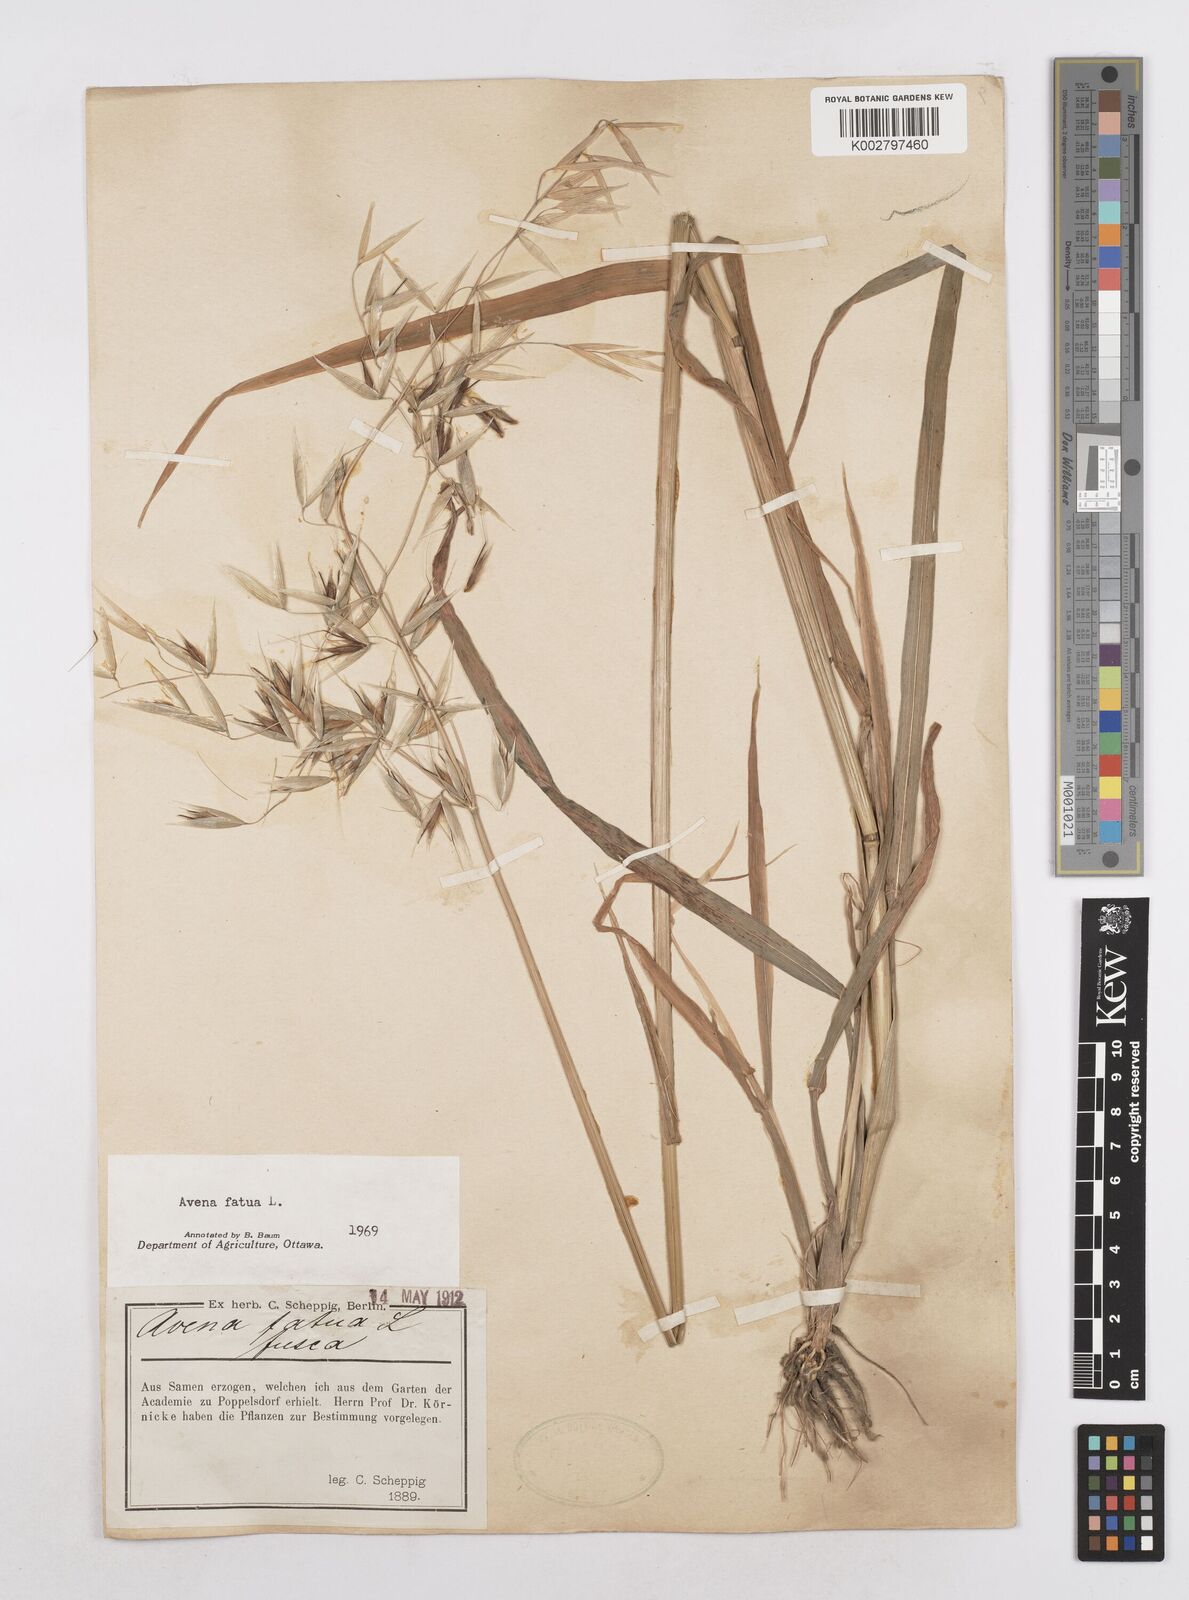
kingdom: Plantae
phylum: Tracheophyta
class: Liliopsida
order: Poales
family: Poaceae
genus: Avena
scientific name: Avena fatua
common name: Wild oat
